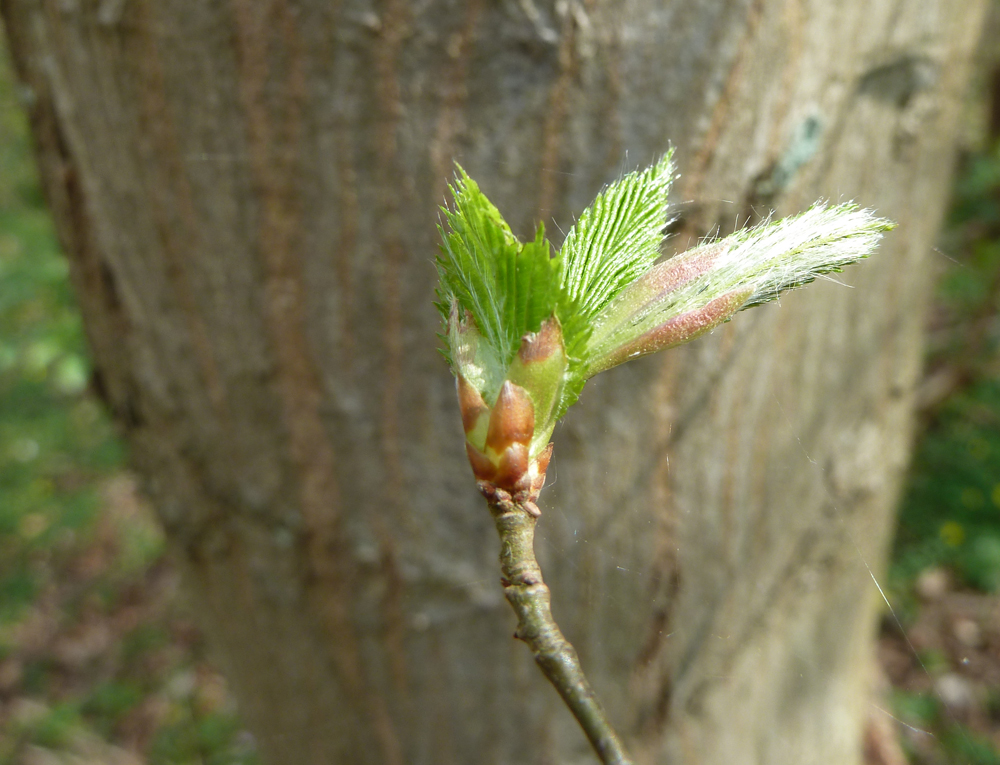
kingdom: Plantae
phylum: Tracheophyta
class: Magnoliopsida
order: Fagales
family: Betulaceae
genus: Carpinus
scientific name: Carpinus betulus
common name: Hornbeam
